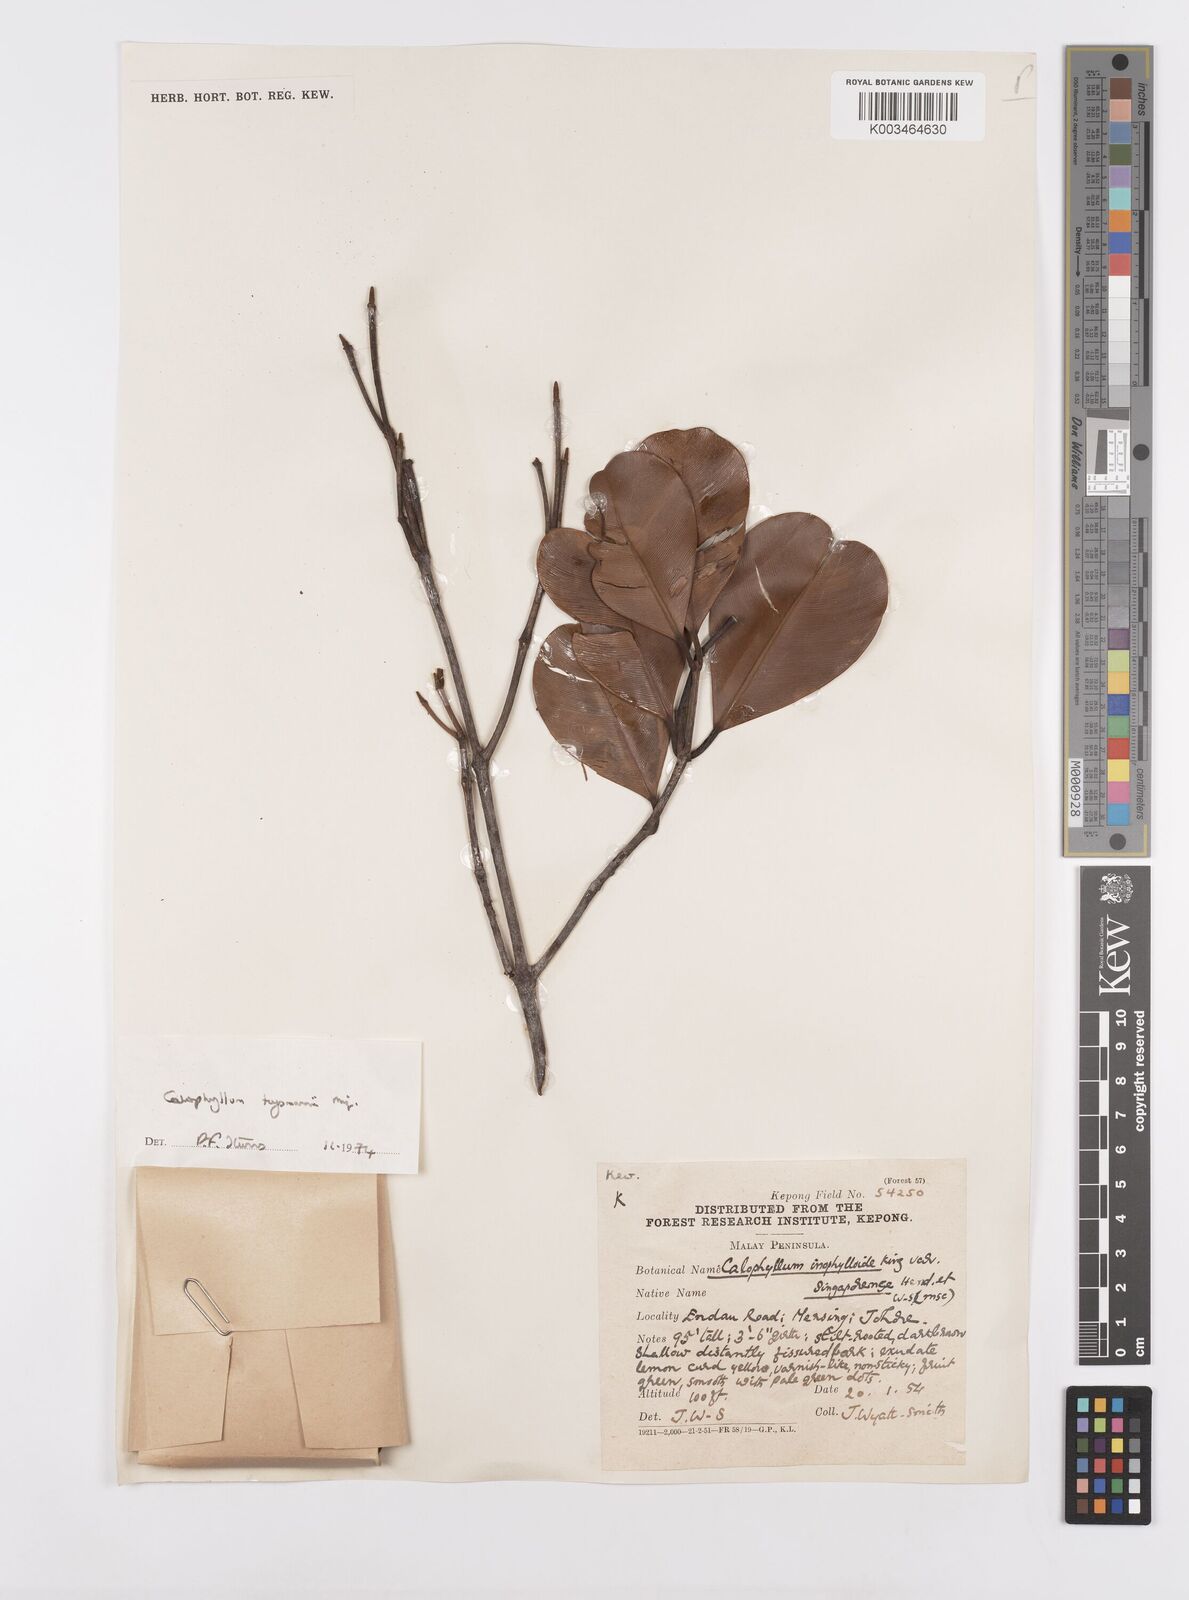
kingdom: Plantae
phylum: Tracheophyta
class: Magnoliopsida
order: Malpighiales
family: Calophyllaceae
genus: Calophyllum
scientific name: Calophyllum teysmannii
